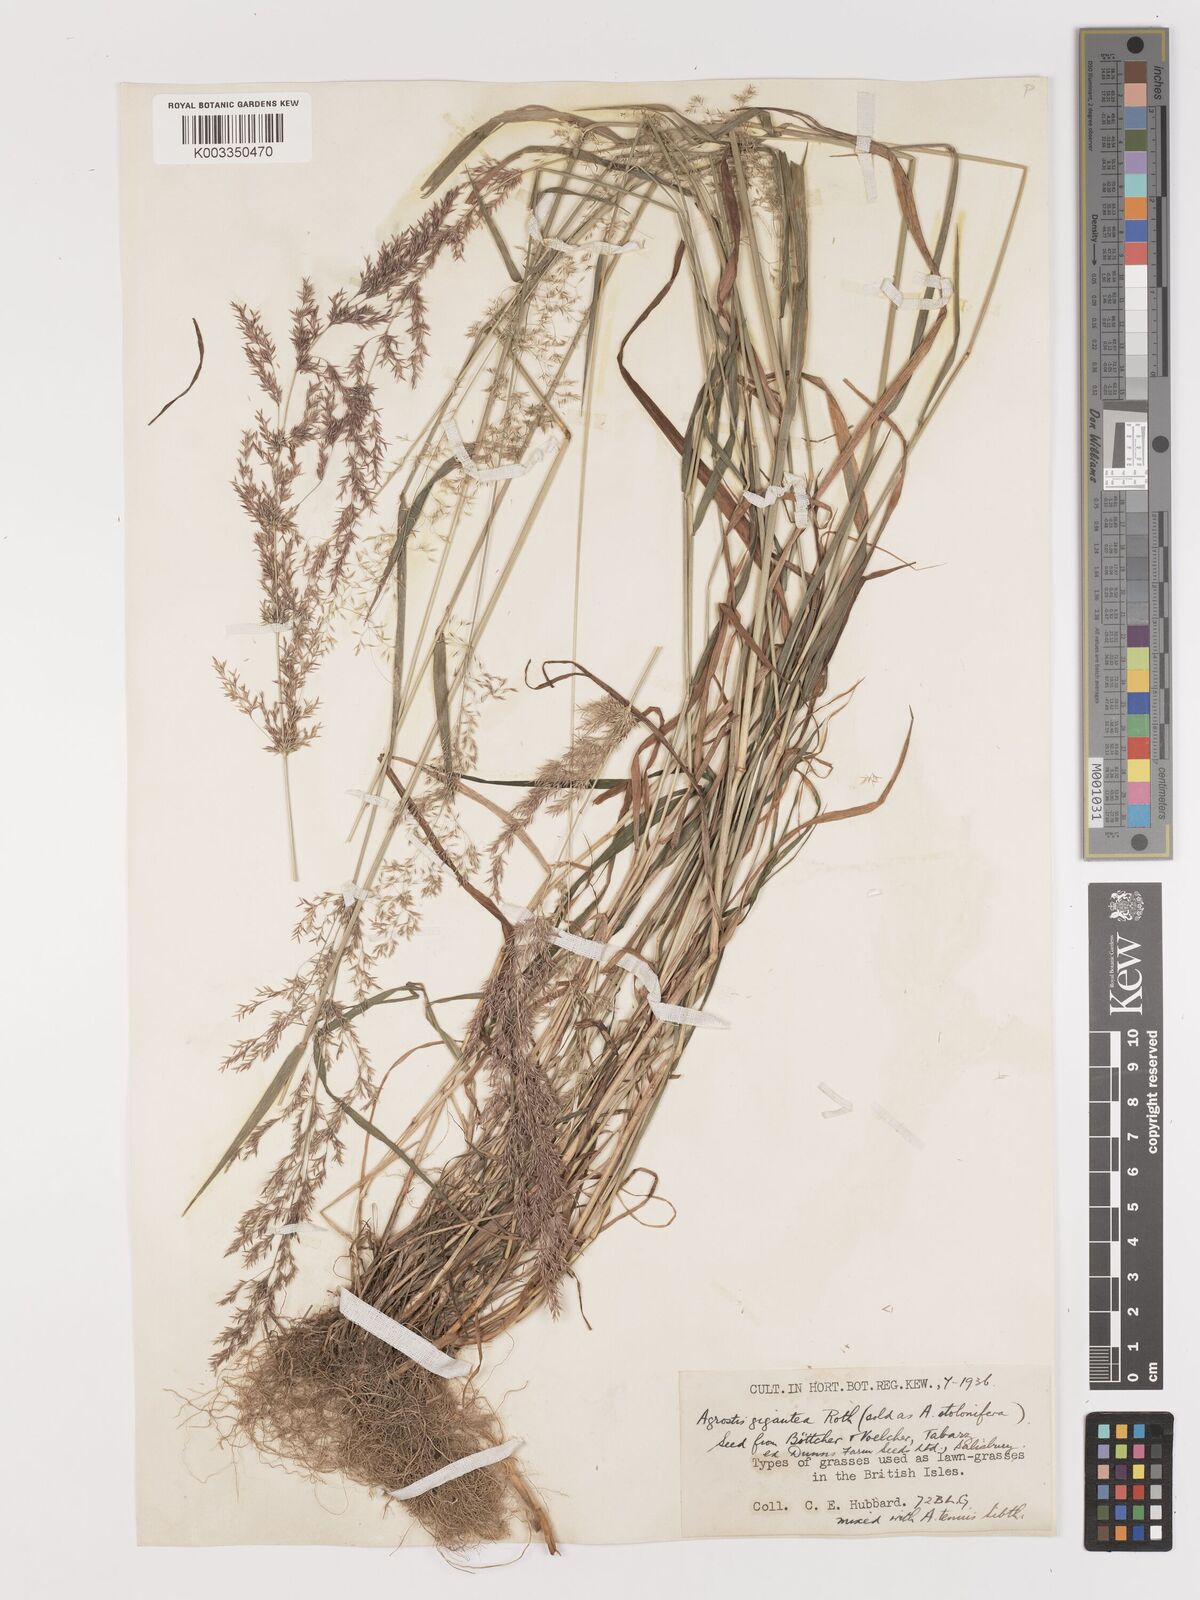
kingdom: Plantae
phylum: Tracheophyta
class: Liliopsida
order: Poales
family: Poaceae
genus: Agrostis
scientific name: Agrostis gigantea
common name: Black bent
